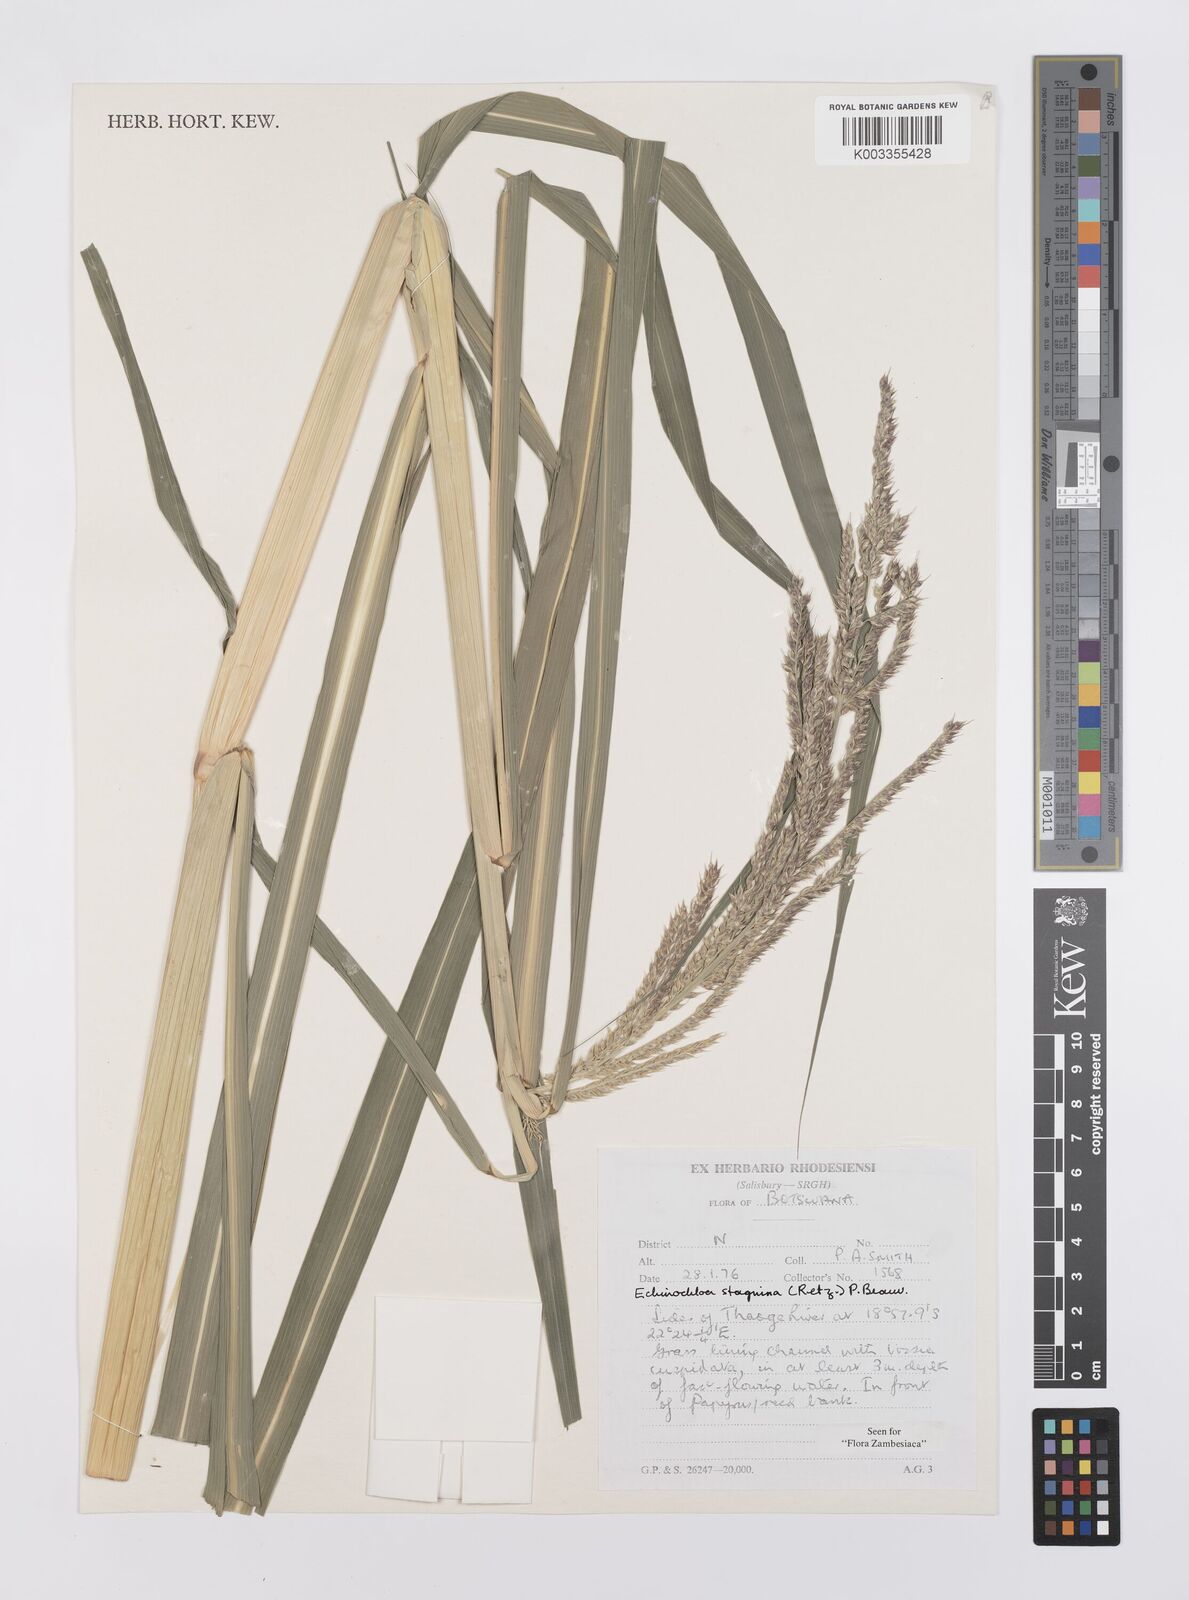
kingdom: Plantae
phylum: Tracheophyta
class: Liliopsida
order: Poales
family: Poaceae
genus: Echinochloa
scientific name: Echinochloa stagnina
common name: Burgu grass
